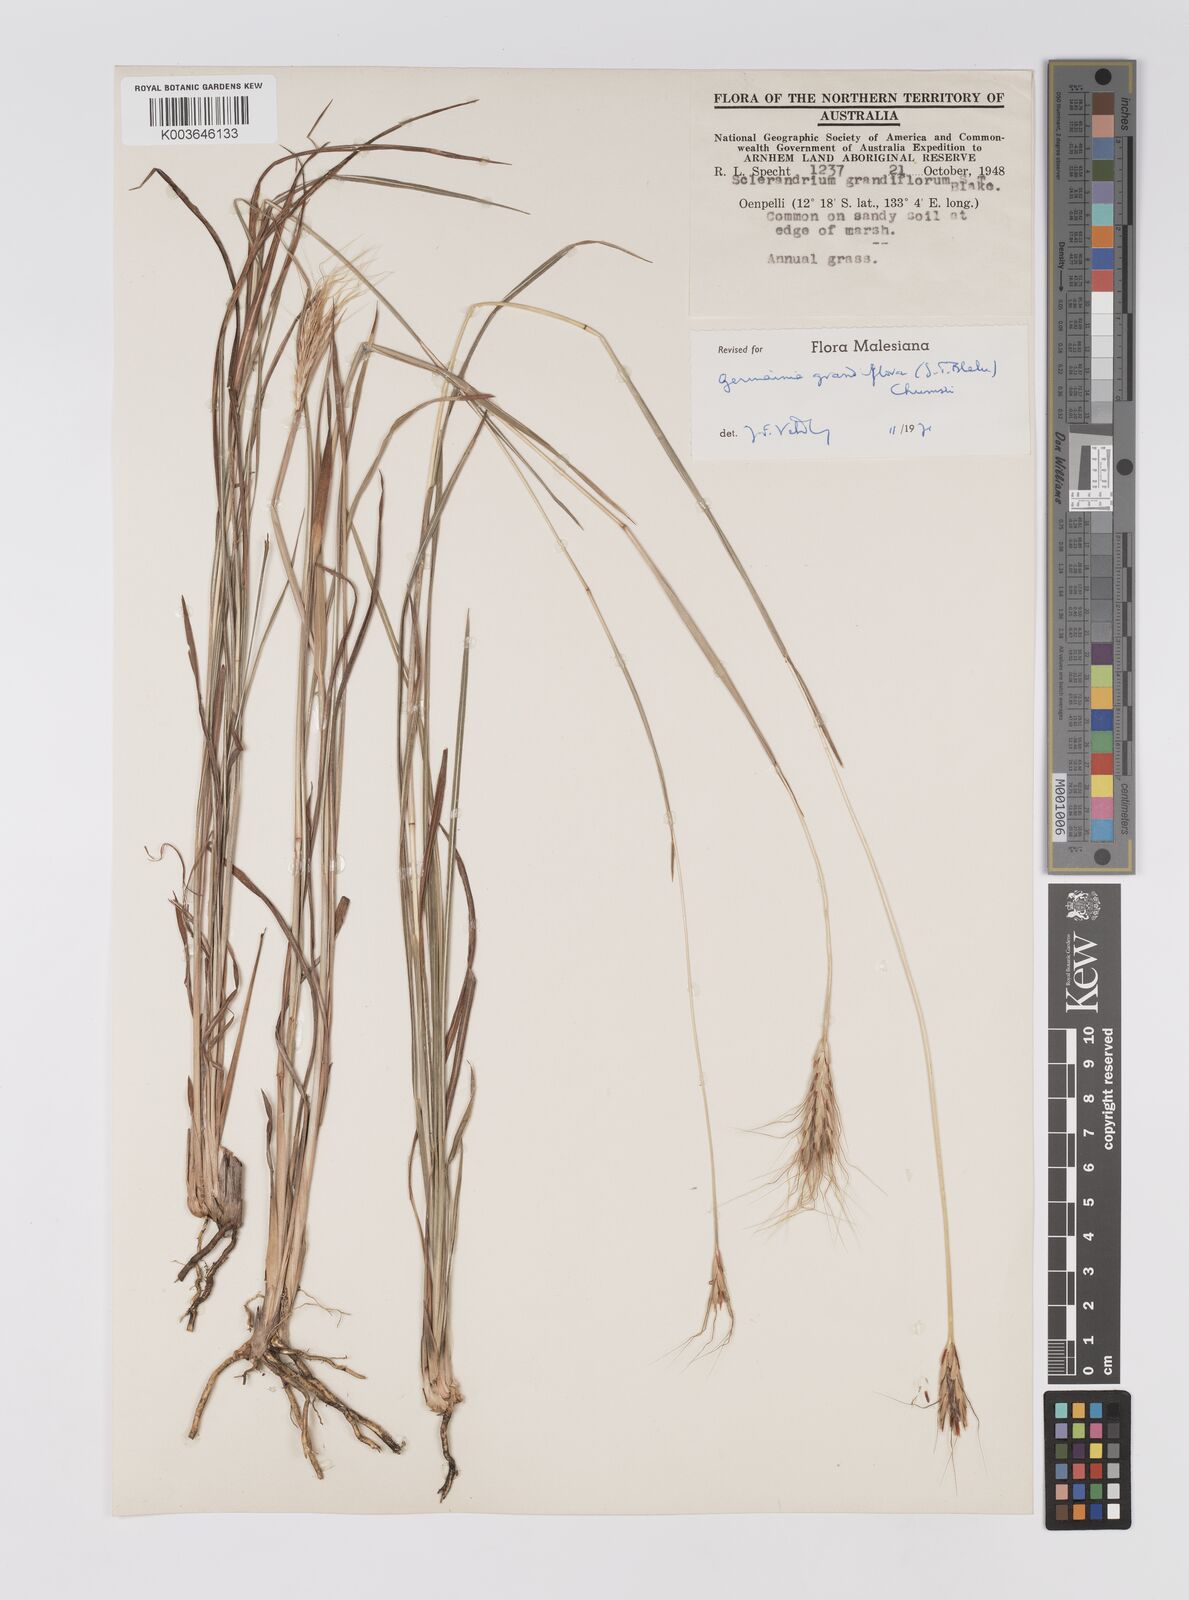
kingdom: Plantae
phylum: Tracheophyta
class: Liliopsida
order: Poales
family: Poaceae
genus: Germainia
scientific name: Germainia grandiflora
